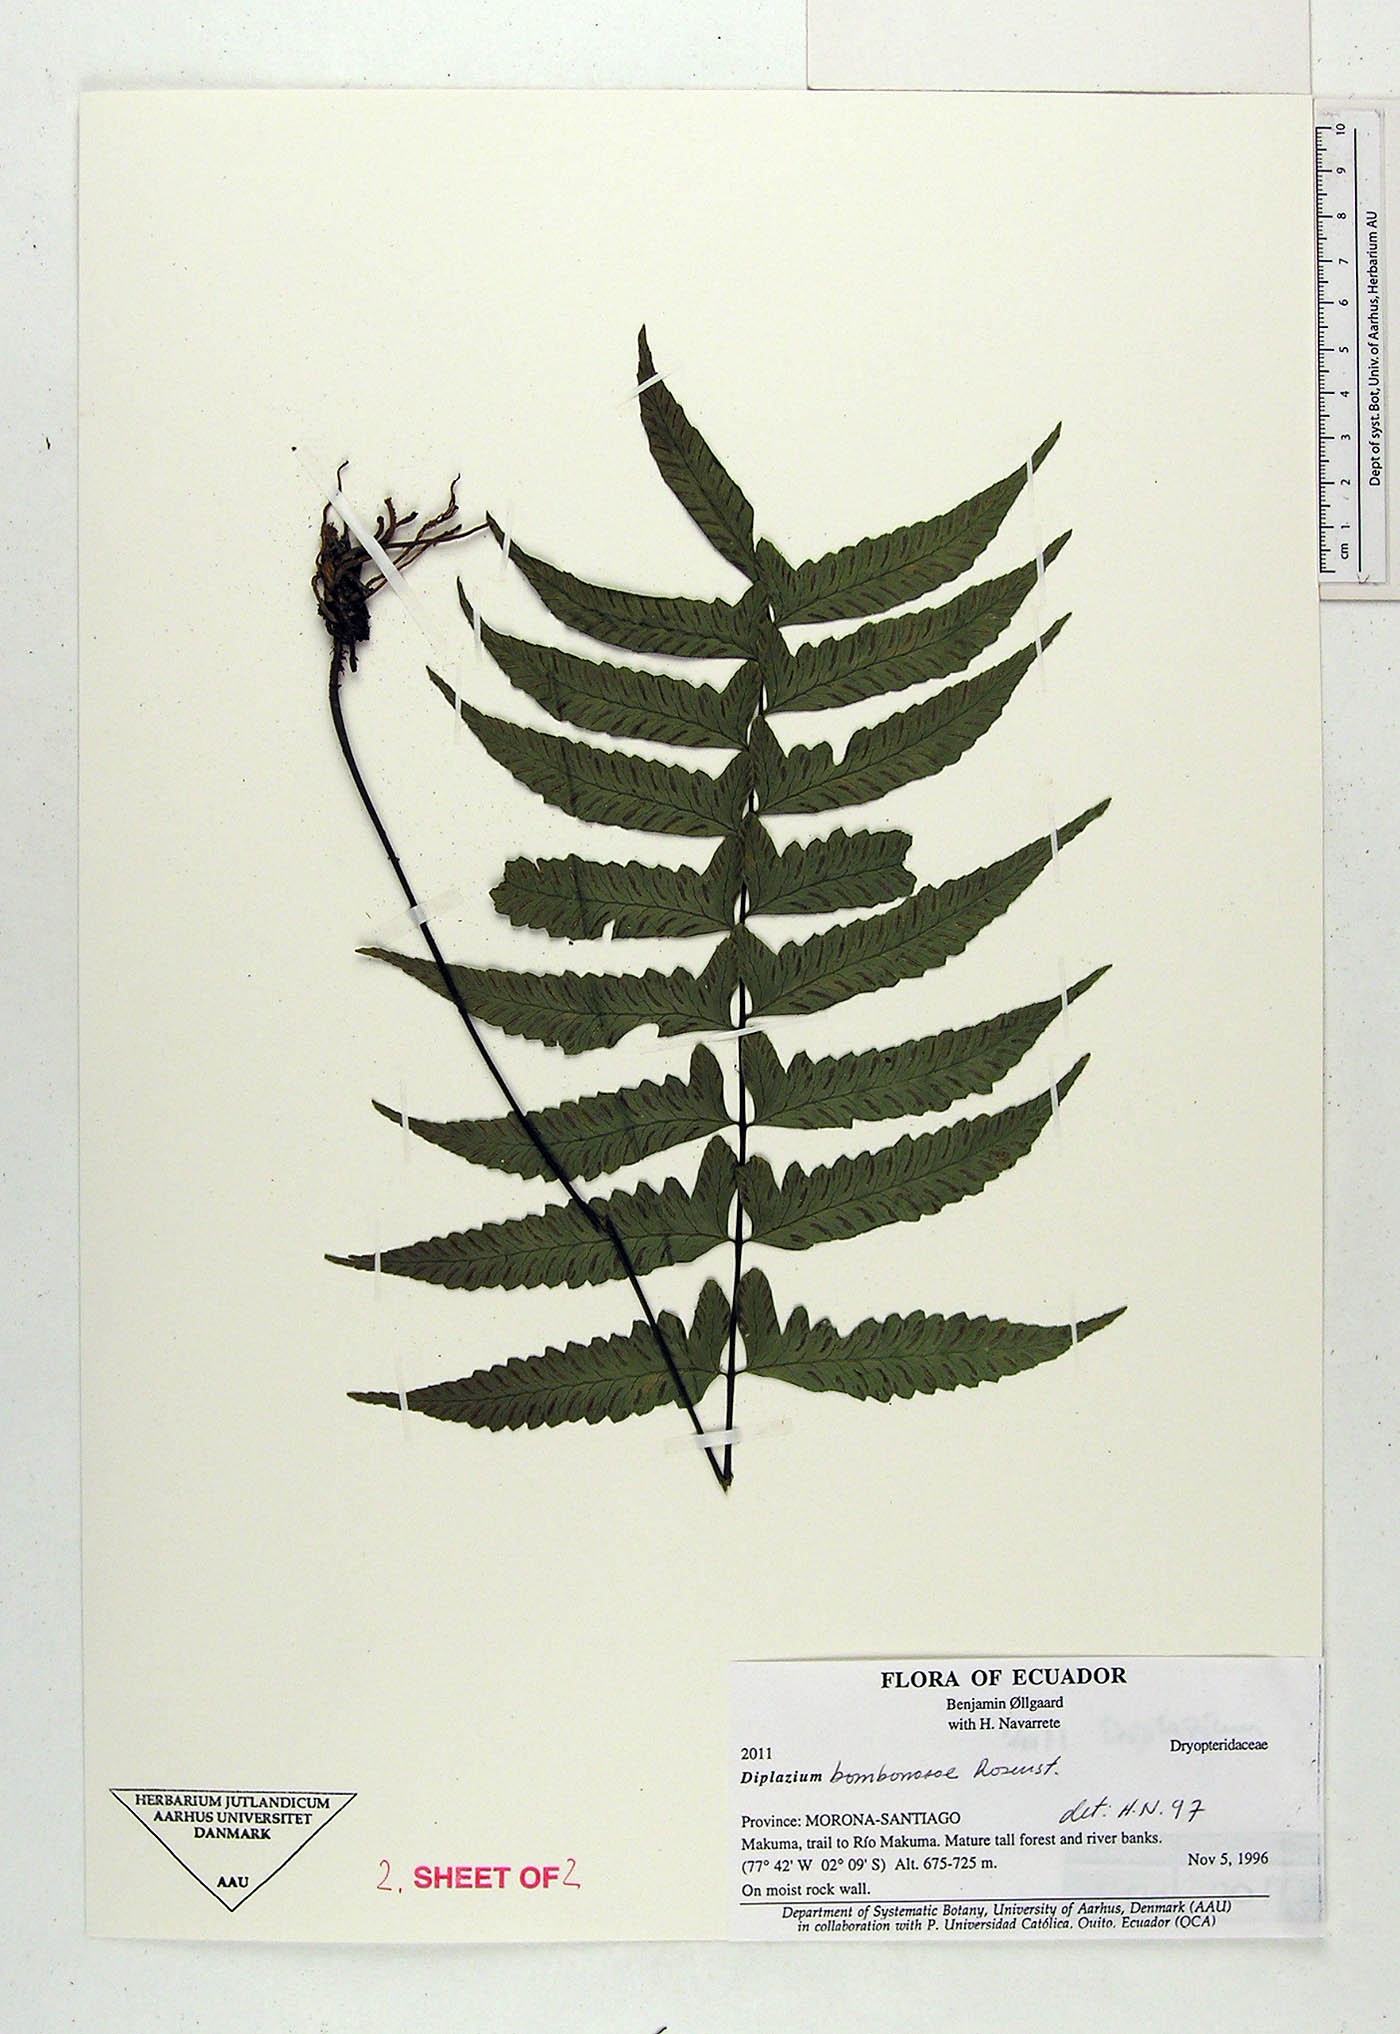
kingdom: Plantae
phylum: Tracheophyta
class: Polypodiopsida
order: Polypodiales
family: Athyriaceae
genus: Diplazium
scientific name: Diplazium bombonasae
